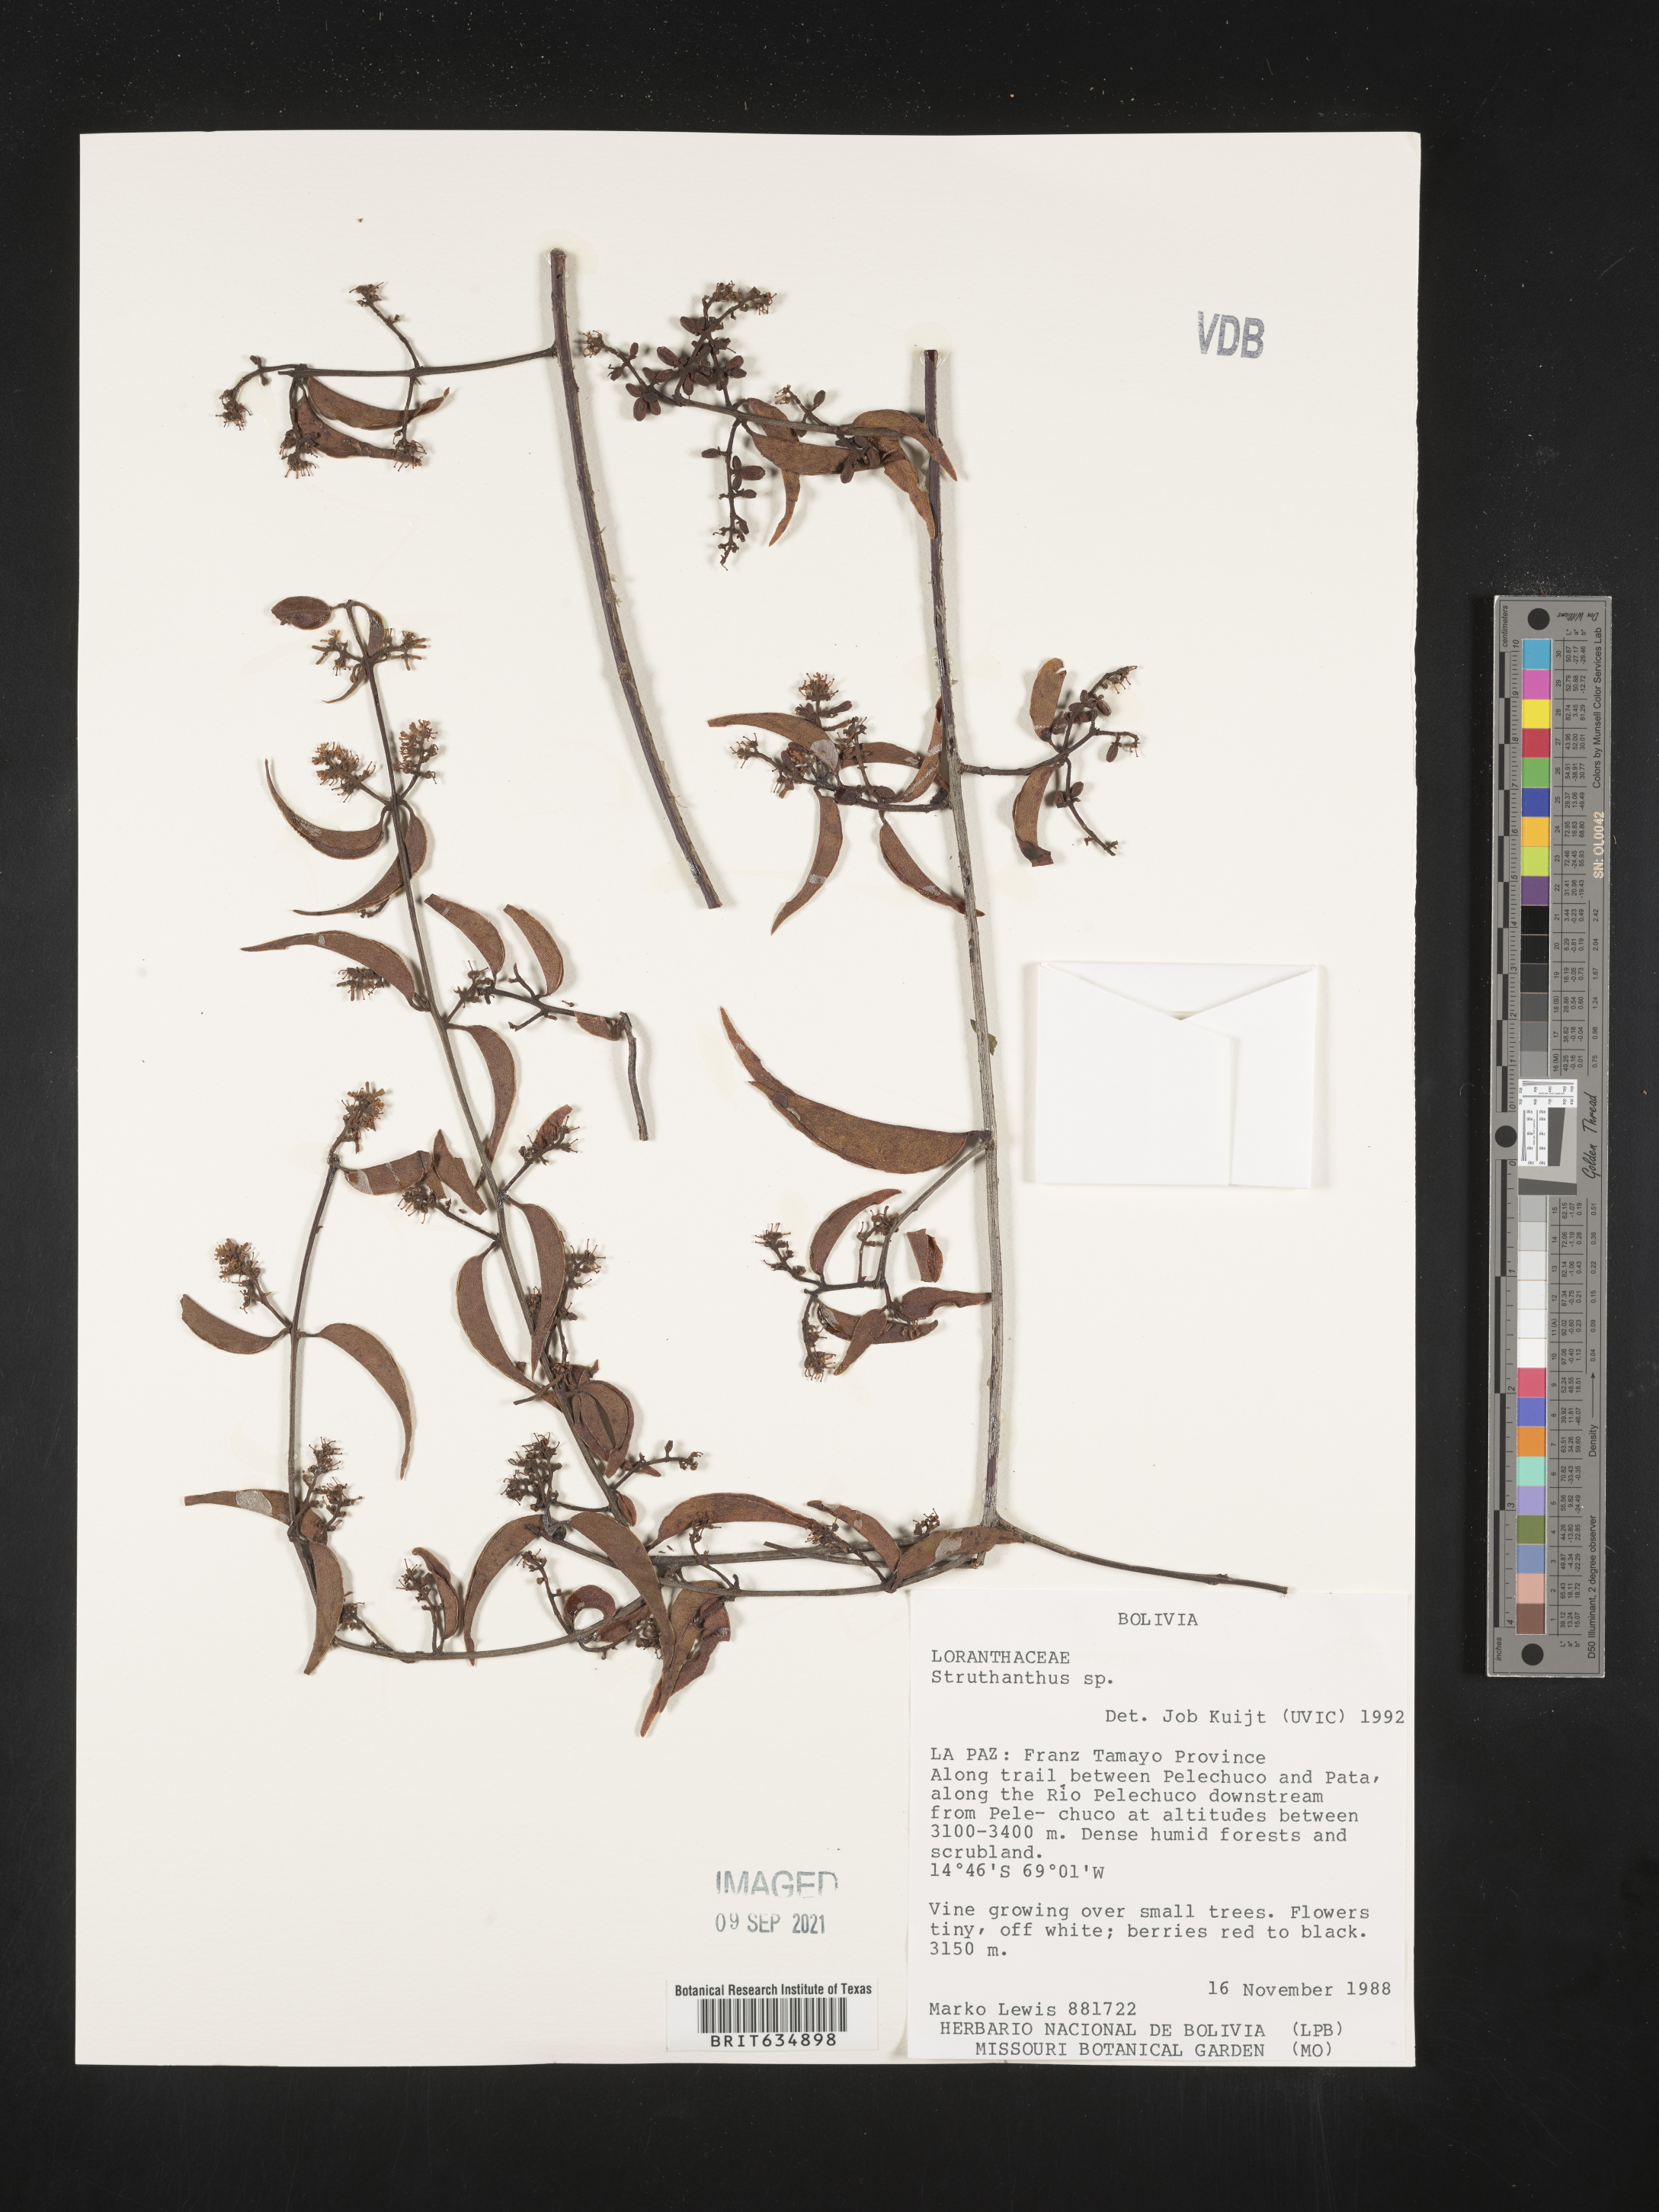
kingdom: Plantae
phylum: Tracheophyta
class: Magnoliopsida
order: Santalales
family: Loranthaceae
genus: Struthanthus
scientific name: Struthanthus
